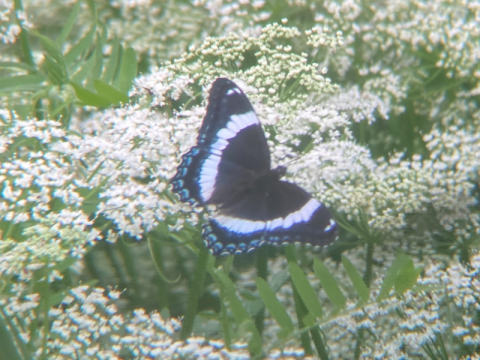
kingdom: Animalia
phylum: Arthropoda
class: Insecta
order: Lepidoptera
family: Nymphalidae
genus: Limenitis
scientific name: Limenitis arthemis
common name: Red-spotted Admiral
